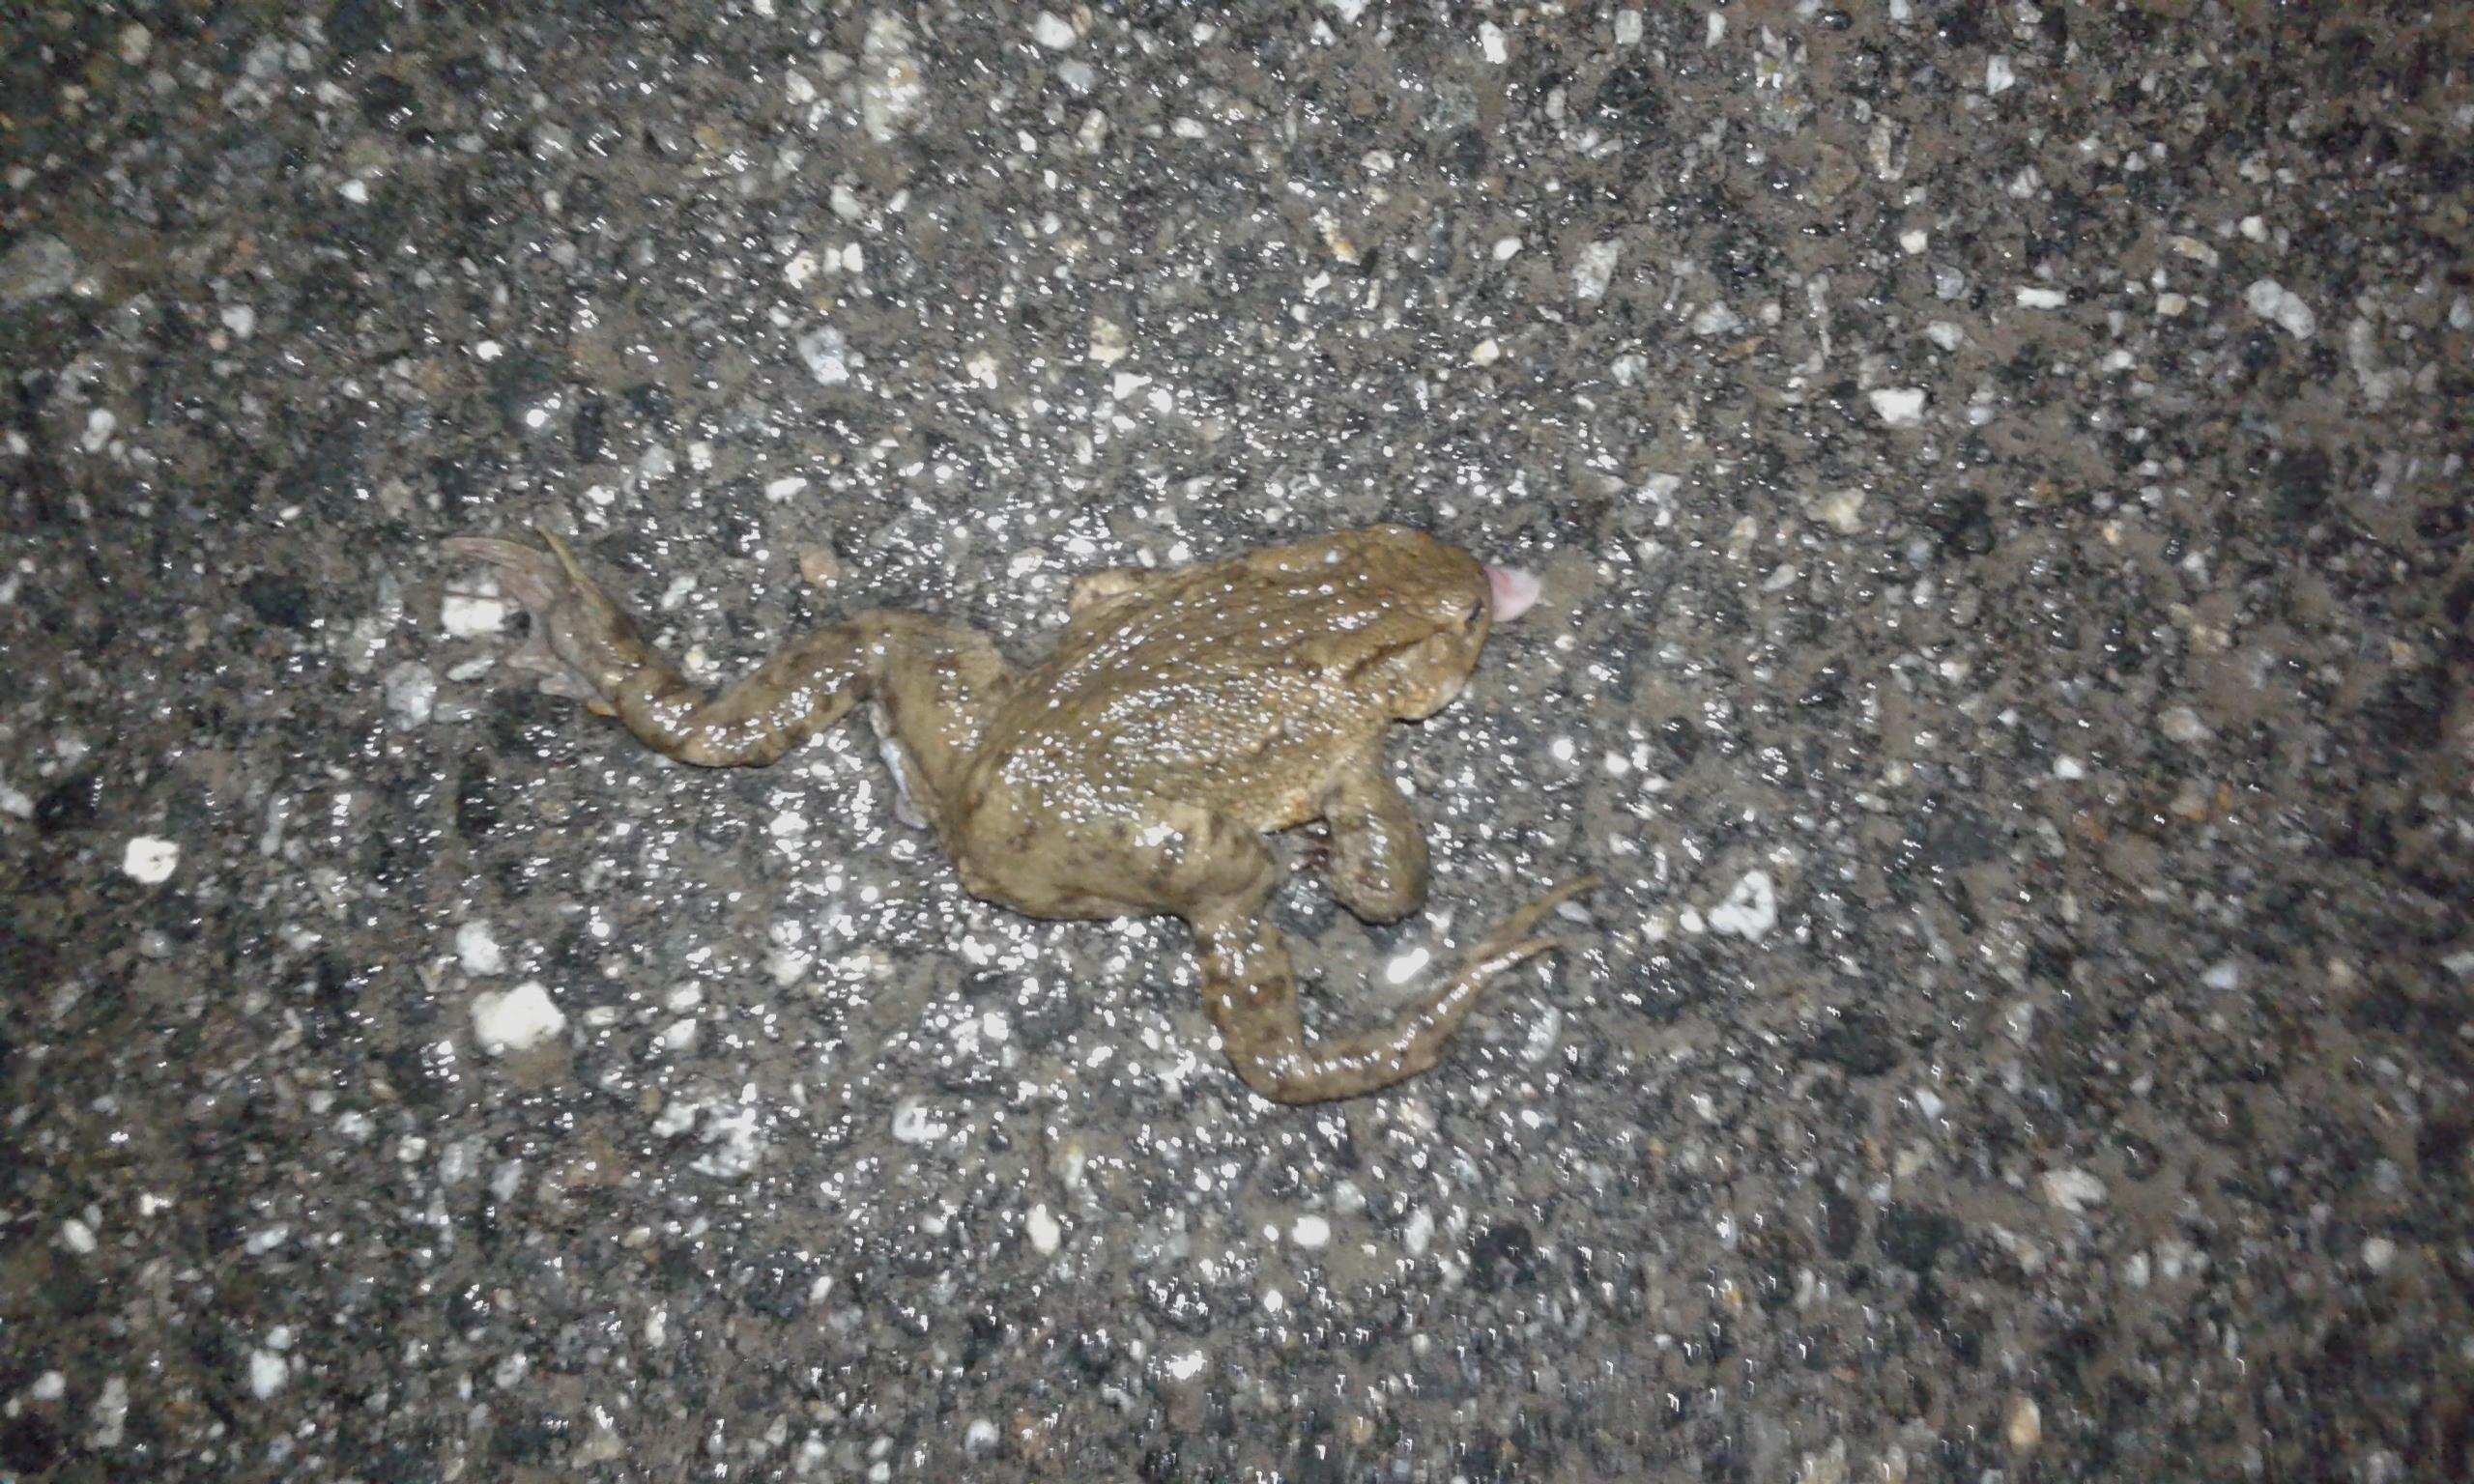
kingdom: Animalia
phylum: Chordata
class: Amphibia
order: Anura
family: Bufonidae
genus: Bufo
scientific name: Bufo bufo
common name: Common toad
